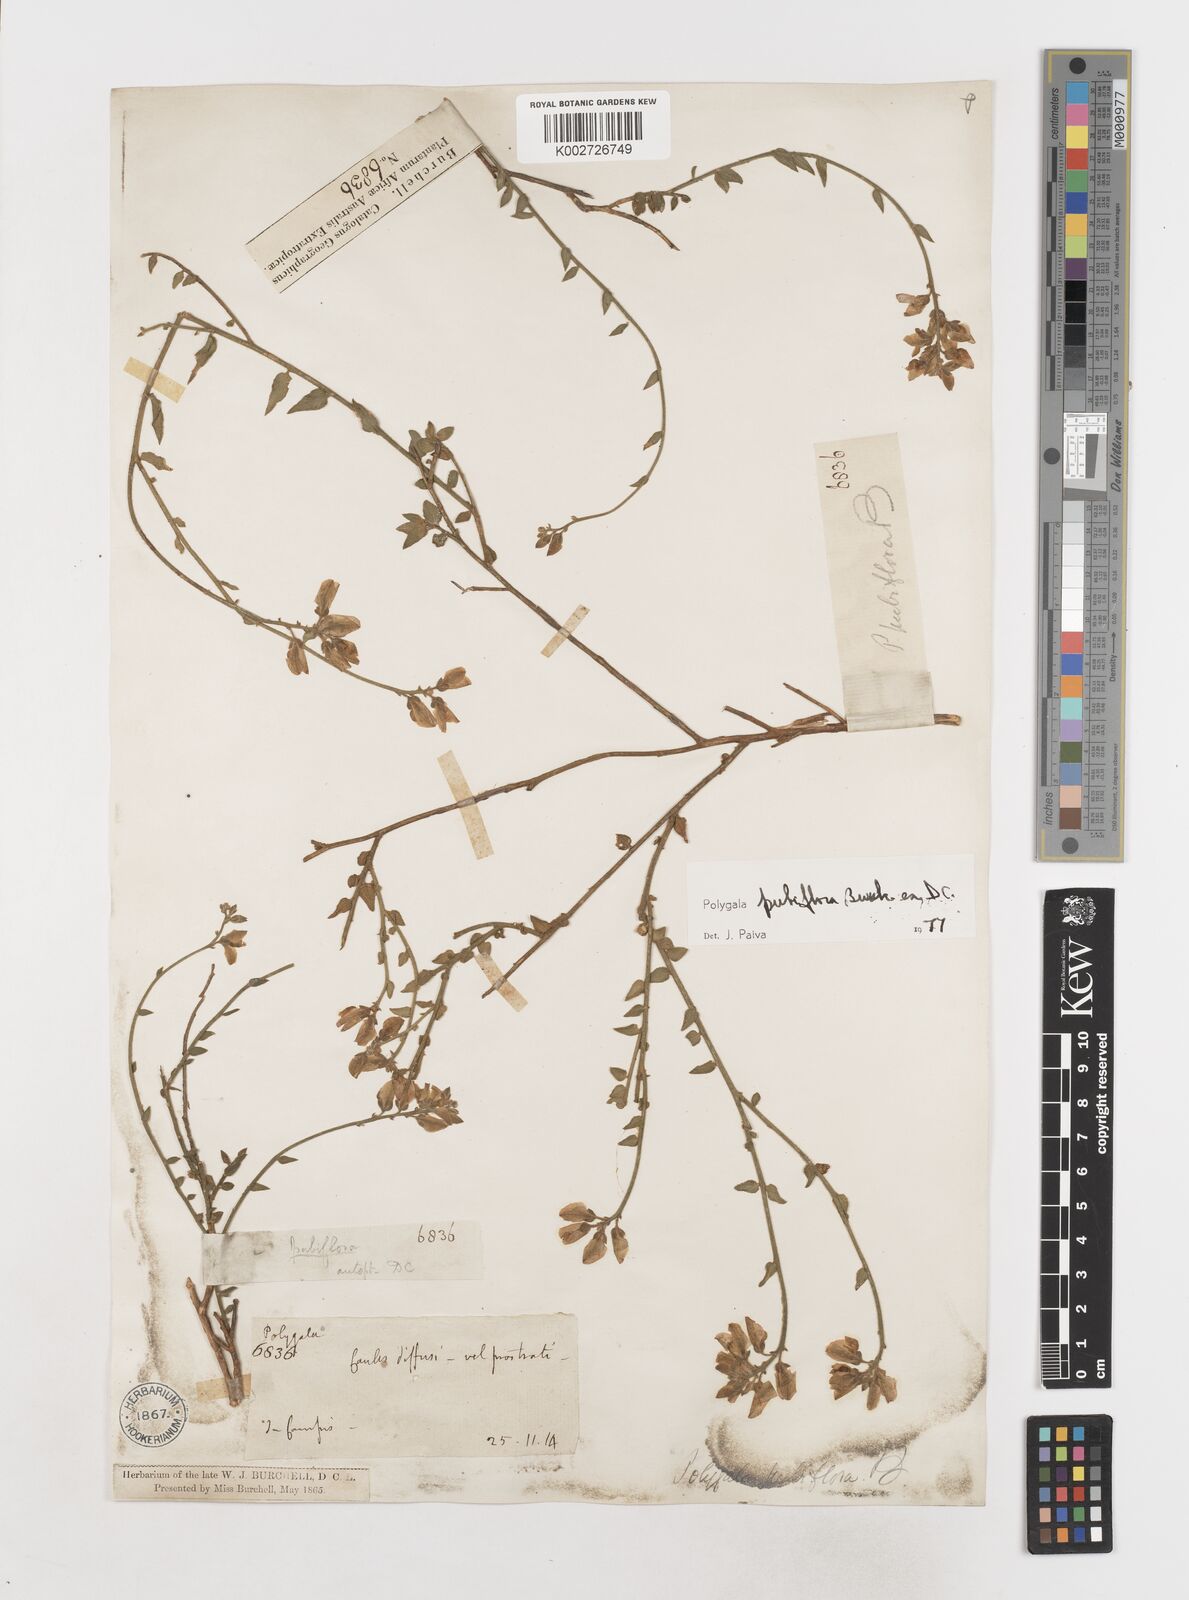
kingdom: Plantae
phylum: Tracheophyta
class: Magnoliopsida
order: Fabales
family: Polygalaceae
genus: Polygala
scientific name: Polygala pubiflora
